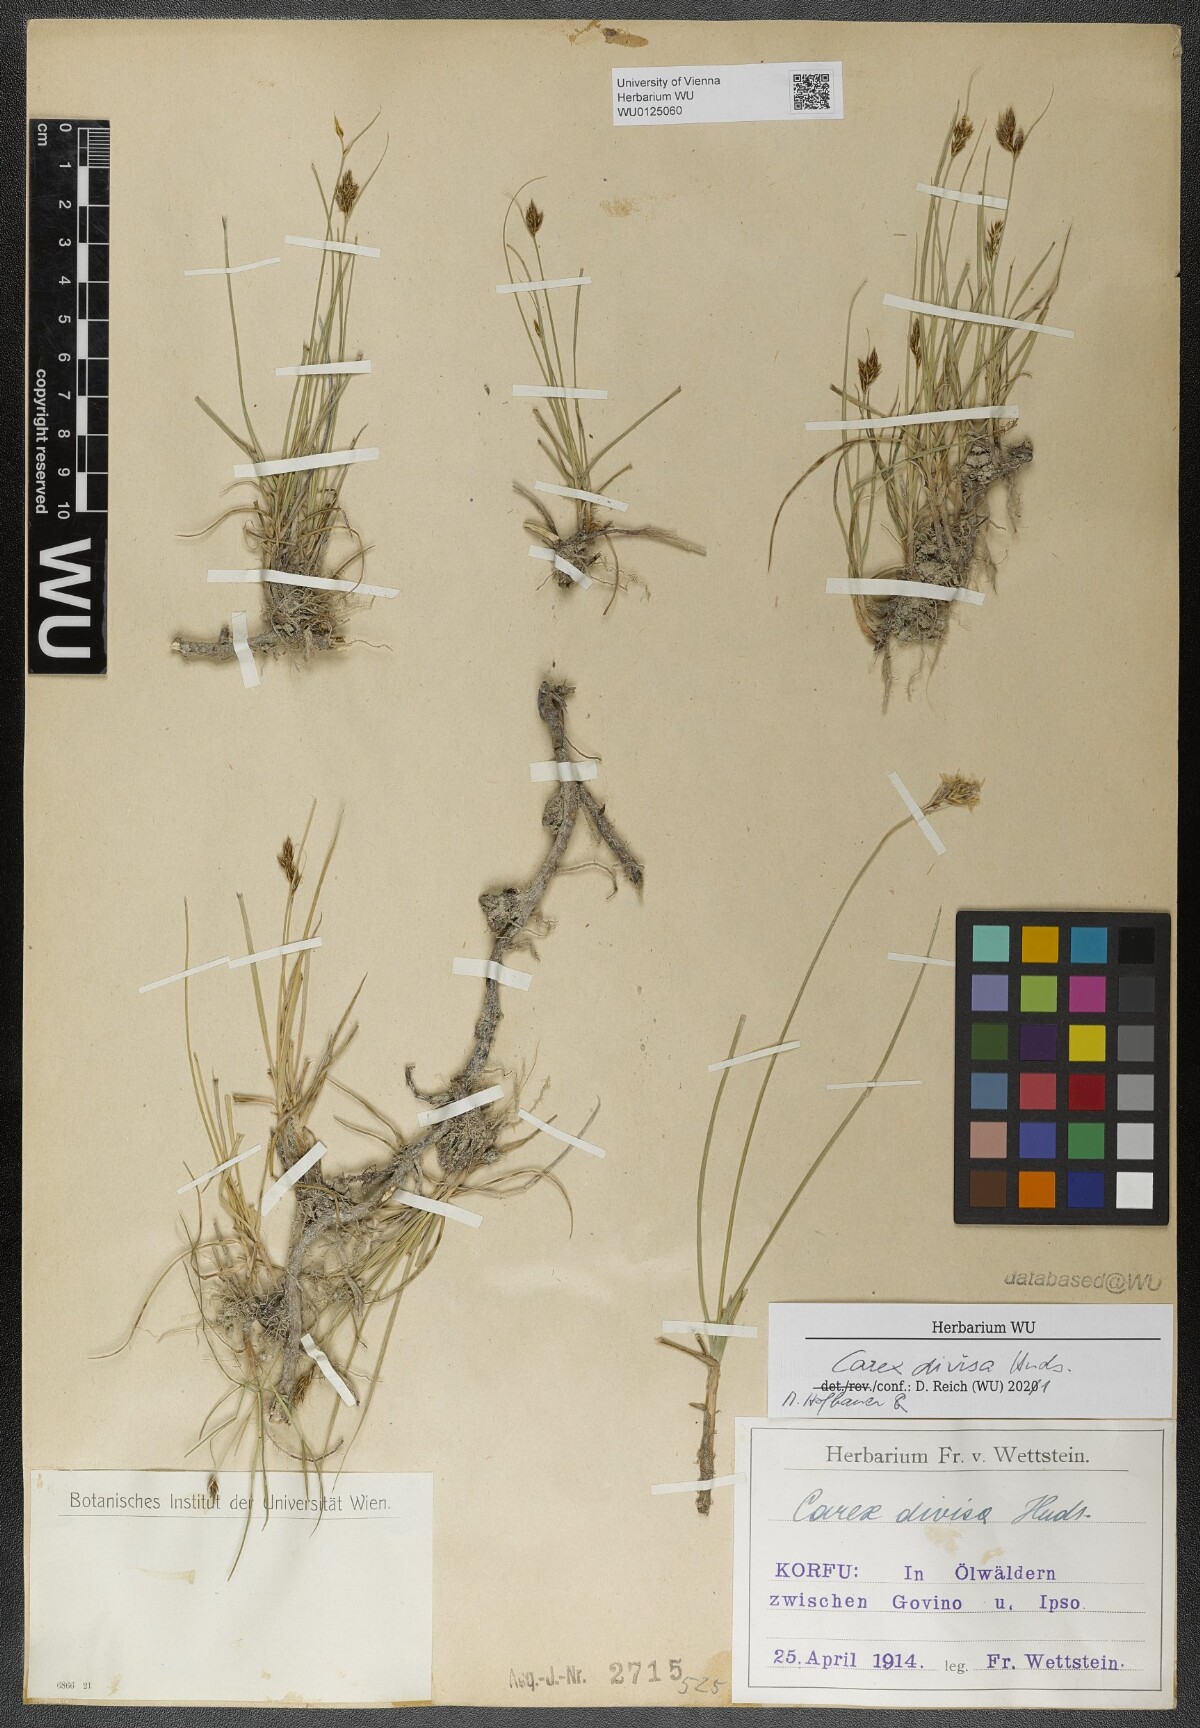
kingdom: Plantae
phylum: Tracheophyta
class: Liliopsida
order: Poales
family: Cyperaceae
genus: Carex
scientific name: Carex divisa
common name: Divided sedge
